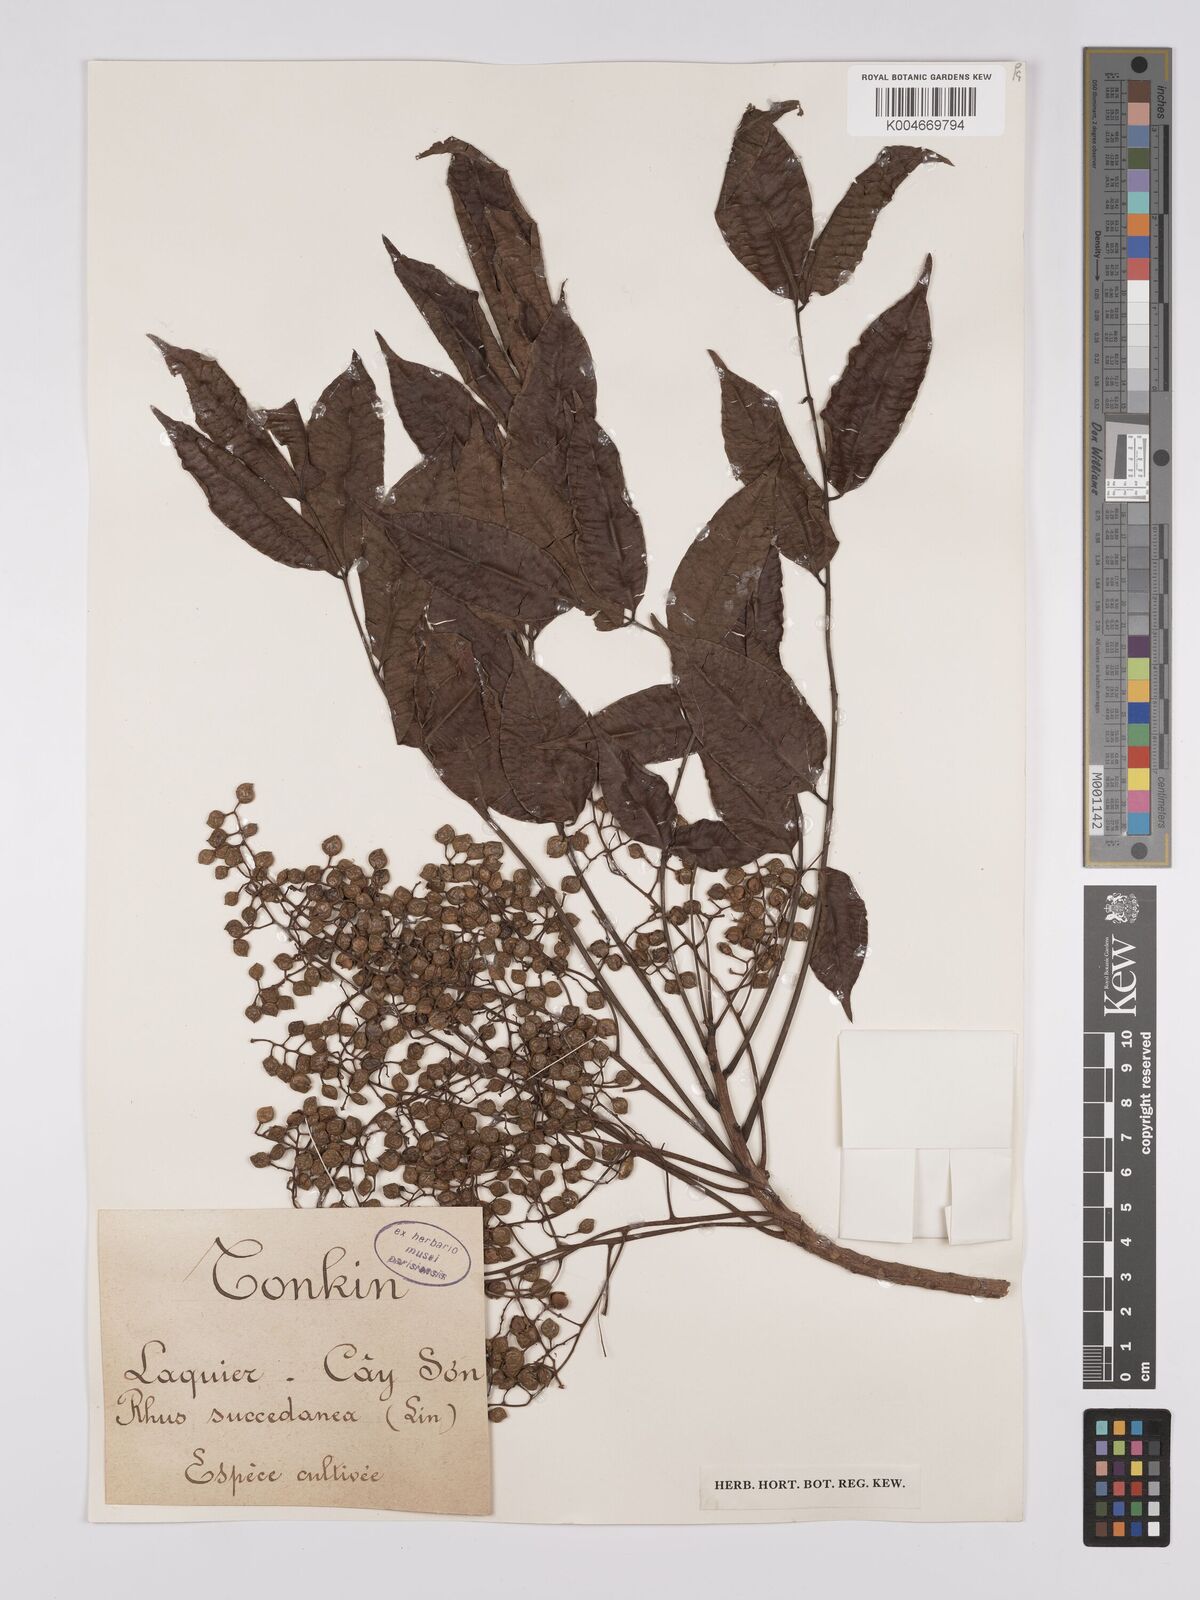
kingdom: Plantae
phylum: Tracheophyta
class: Magnoliopsida
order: Sapindales
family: Anacardiaceae
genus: Toxicodendron
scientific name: Toxicodendron succedaneum
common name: Wax tree
